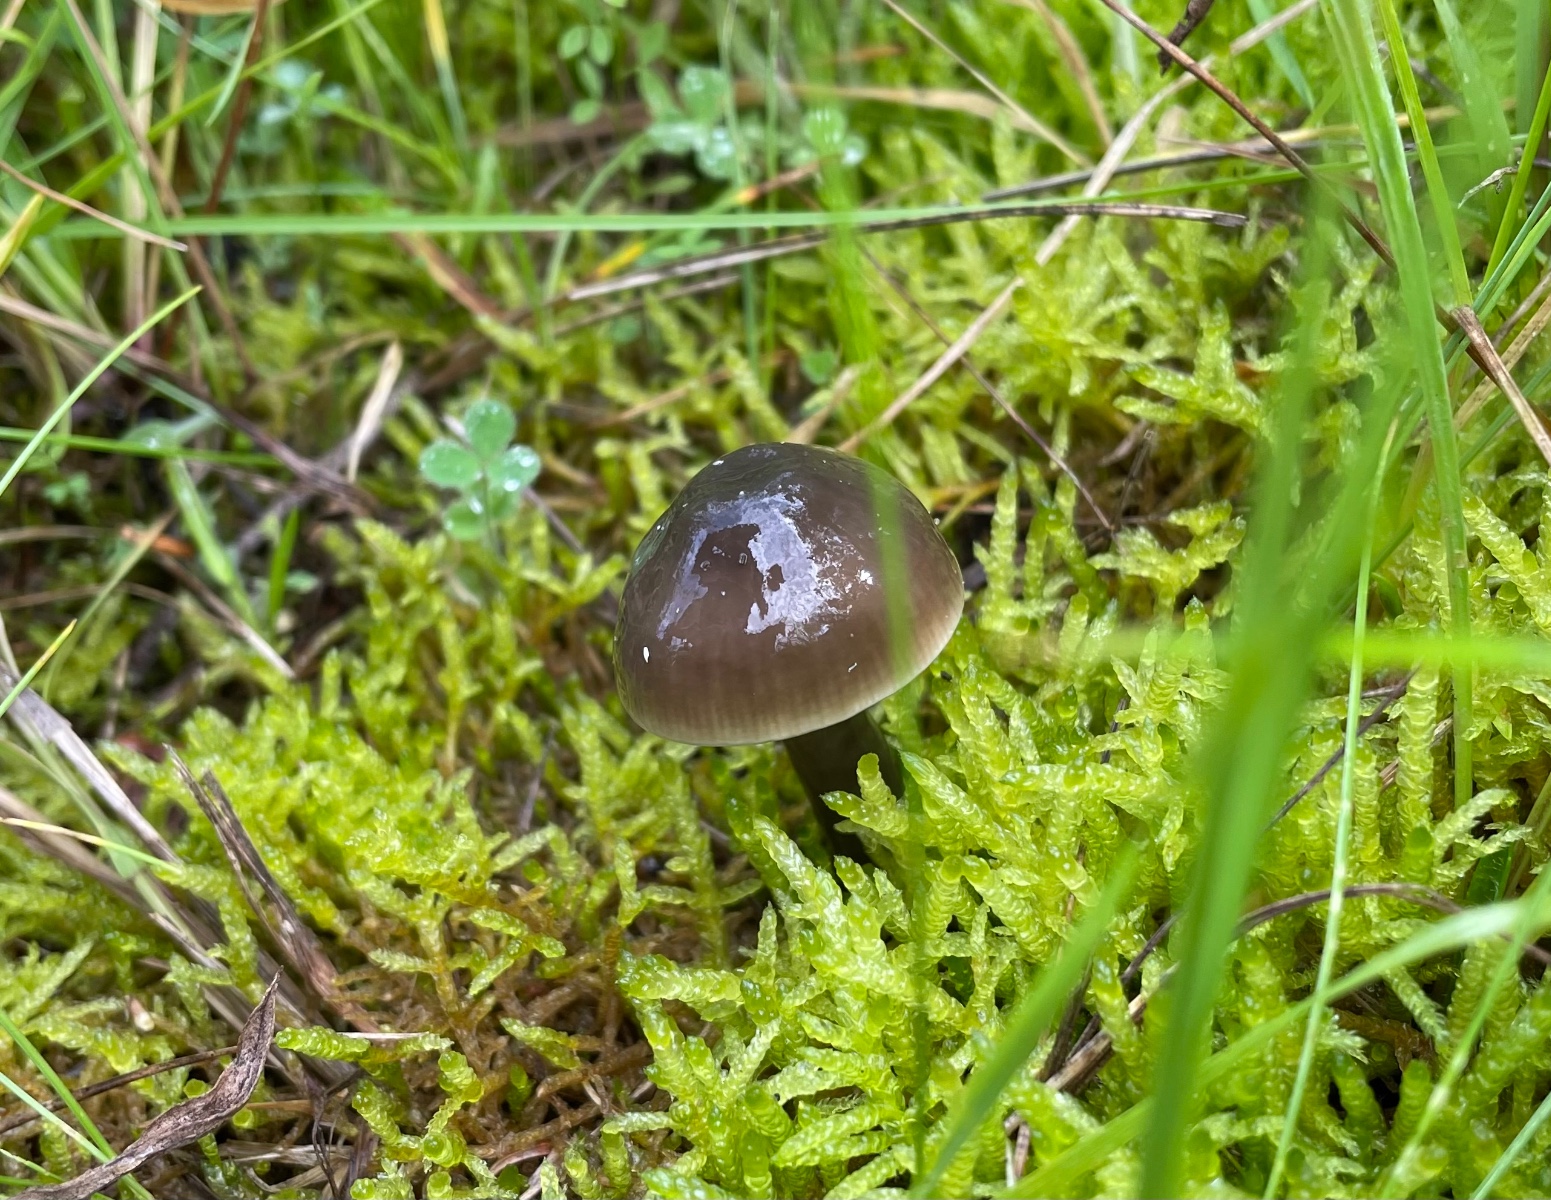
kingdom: Fungi
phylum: Basidiomycota
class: Agaricomycetes
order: Agaricales
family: Hygrophoraceae
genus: Gliophorus
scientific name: Gliophorus irrigatus
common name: slimet vokshat
